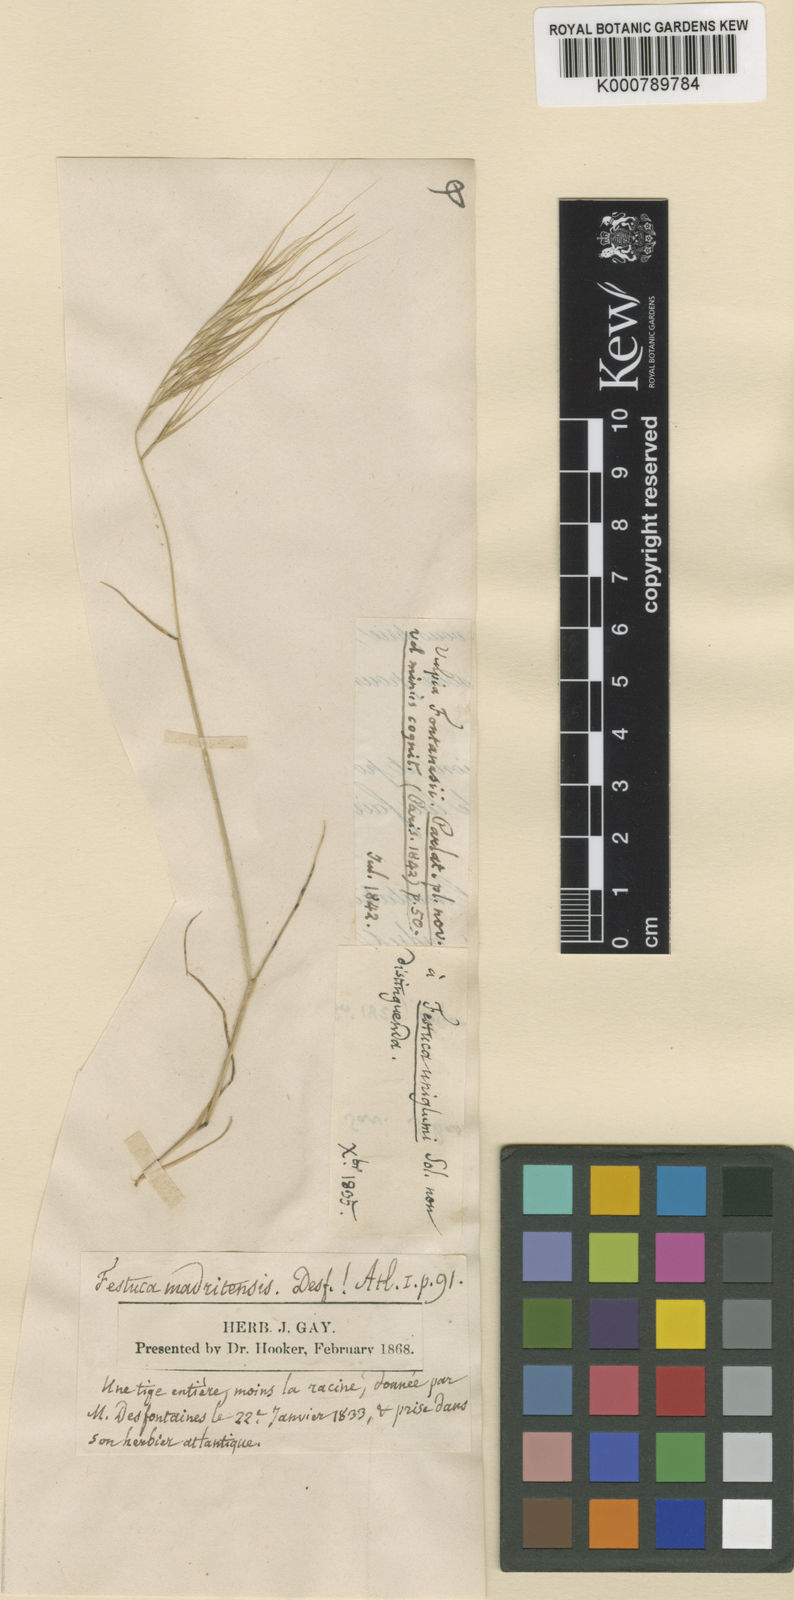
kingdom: Plantae
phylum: Tracheophyta
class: Liliopsida
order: Poales
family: Poaceae
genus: Festuca
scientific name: Festuca membranacea
